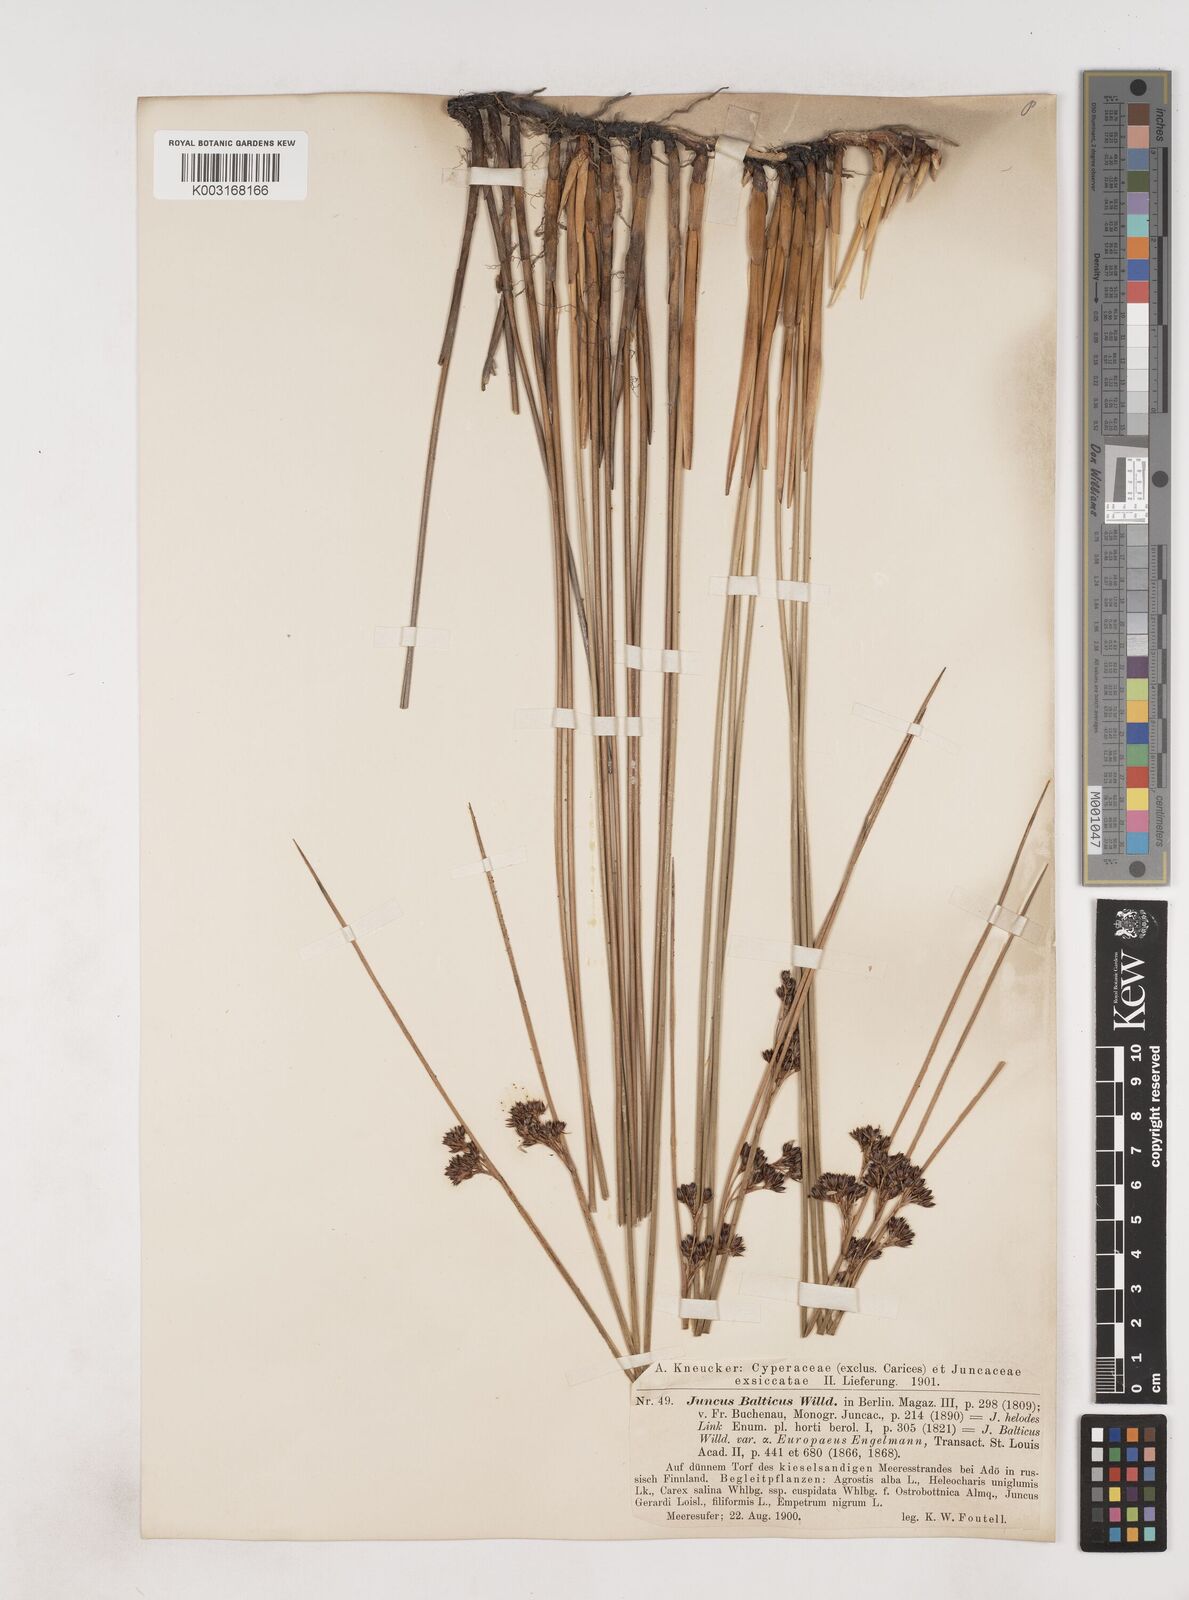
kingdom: Plantae
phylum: Tracheophyta
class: Liliopsida
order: Poales
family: Juncaceae
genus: Juncus
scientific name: Juncus balticus
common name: Baltic rush
